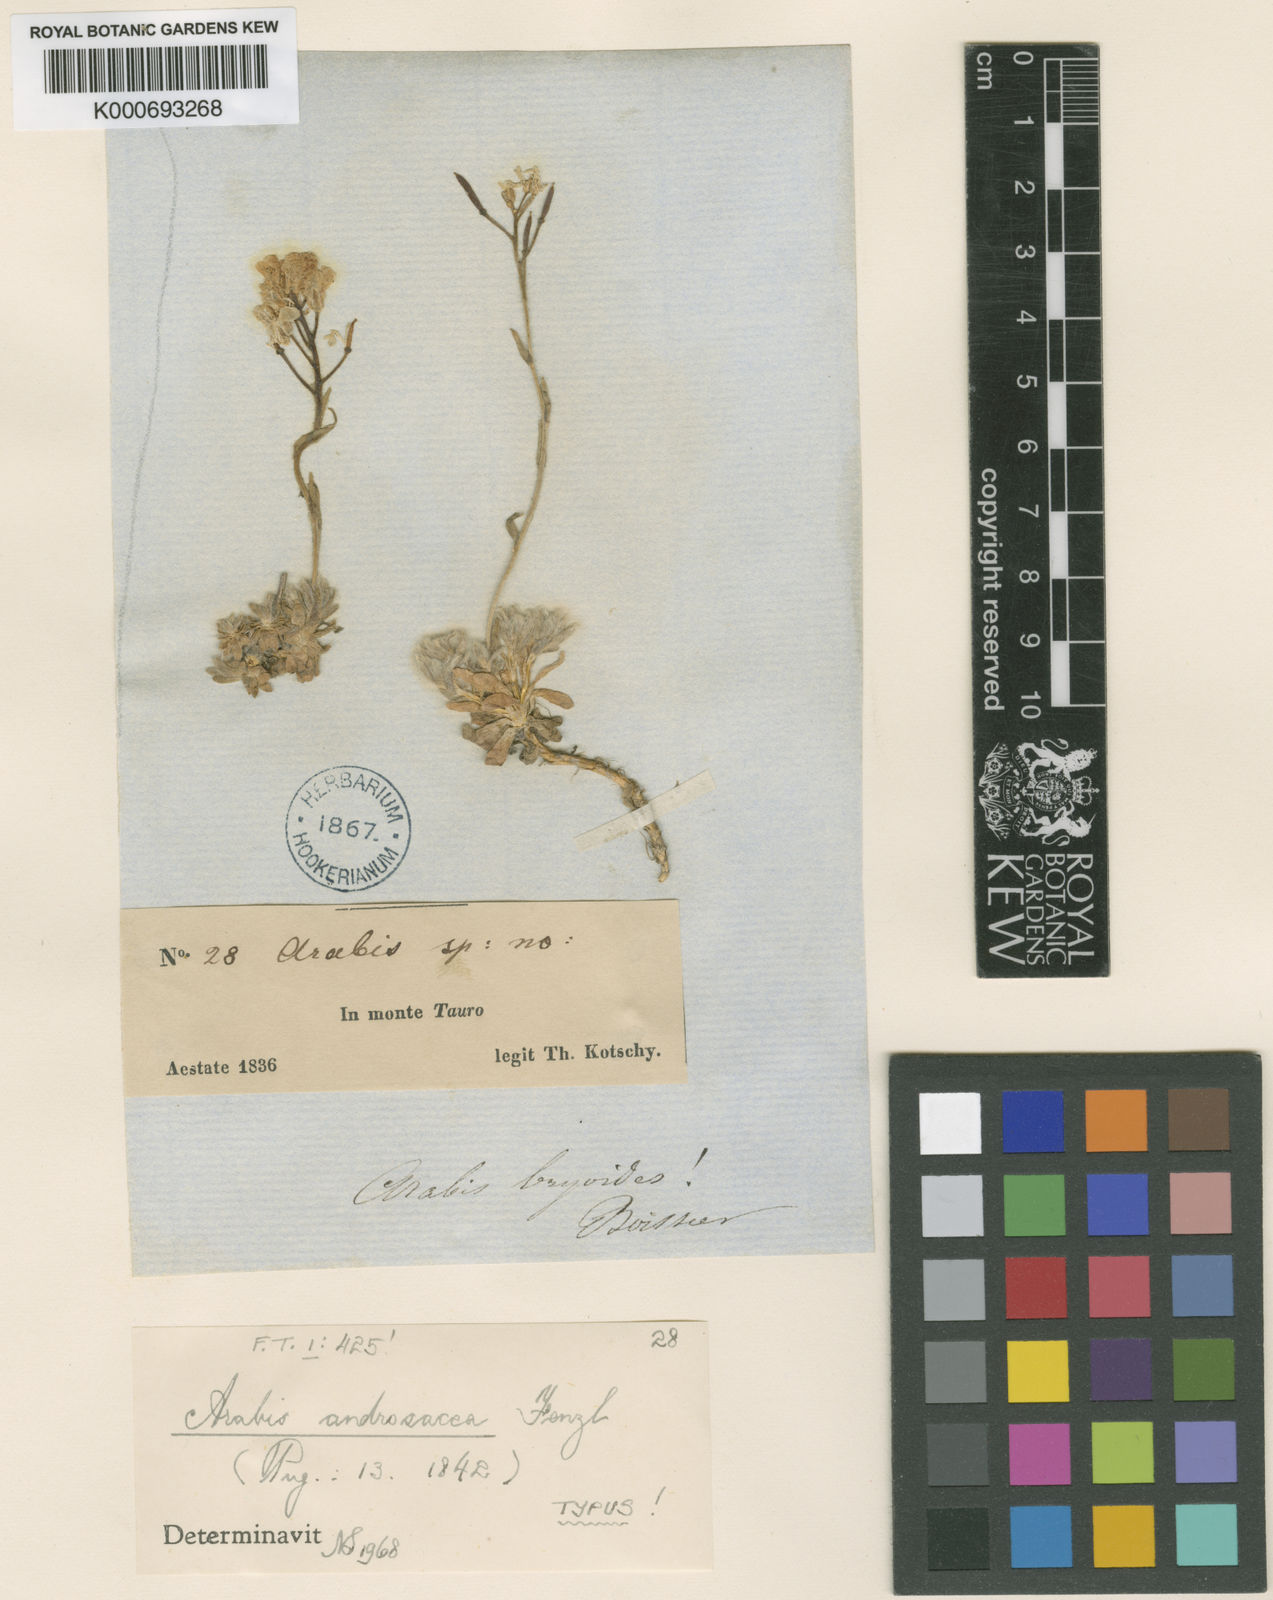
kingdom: Plantae
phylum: Tracheophyta
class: Magnoliopsida
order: Brassicales
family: Brassicaceae
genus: Arabis
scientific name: Arabis androsacea
